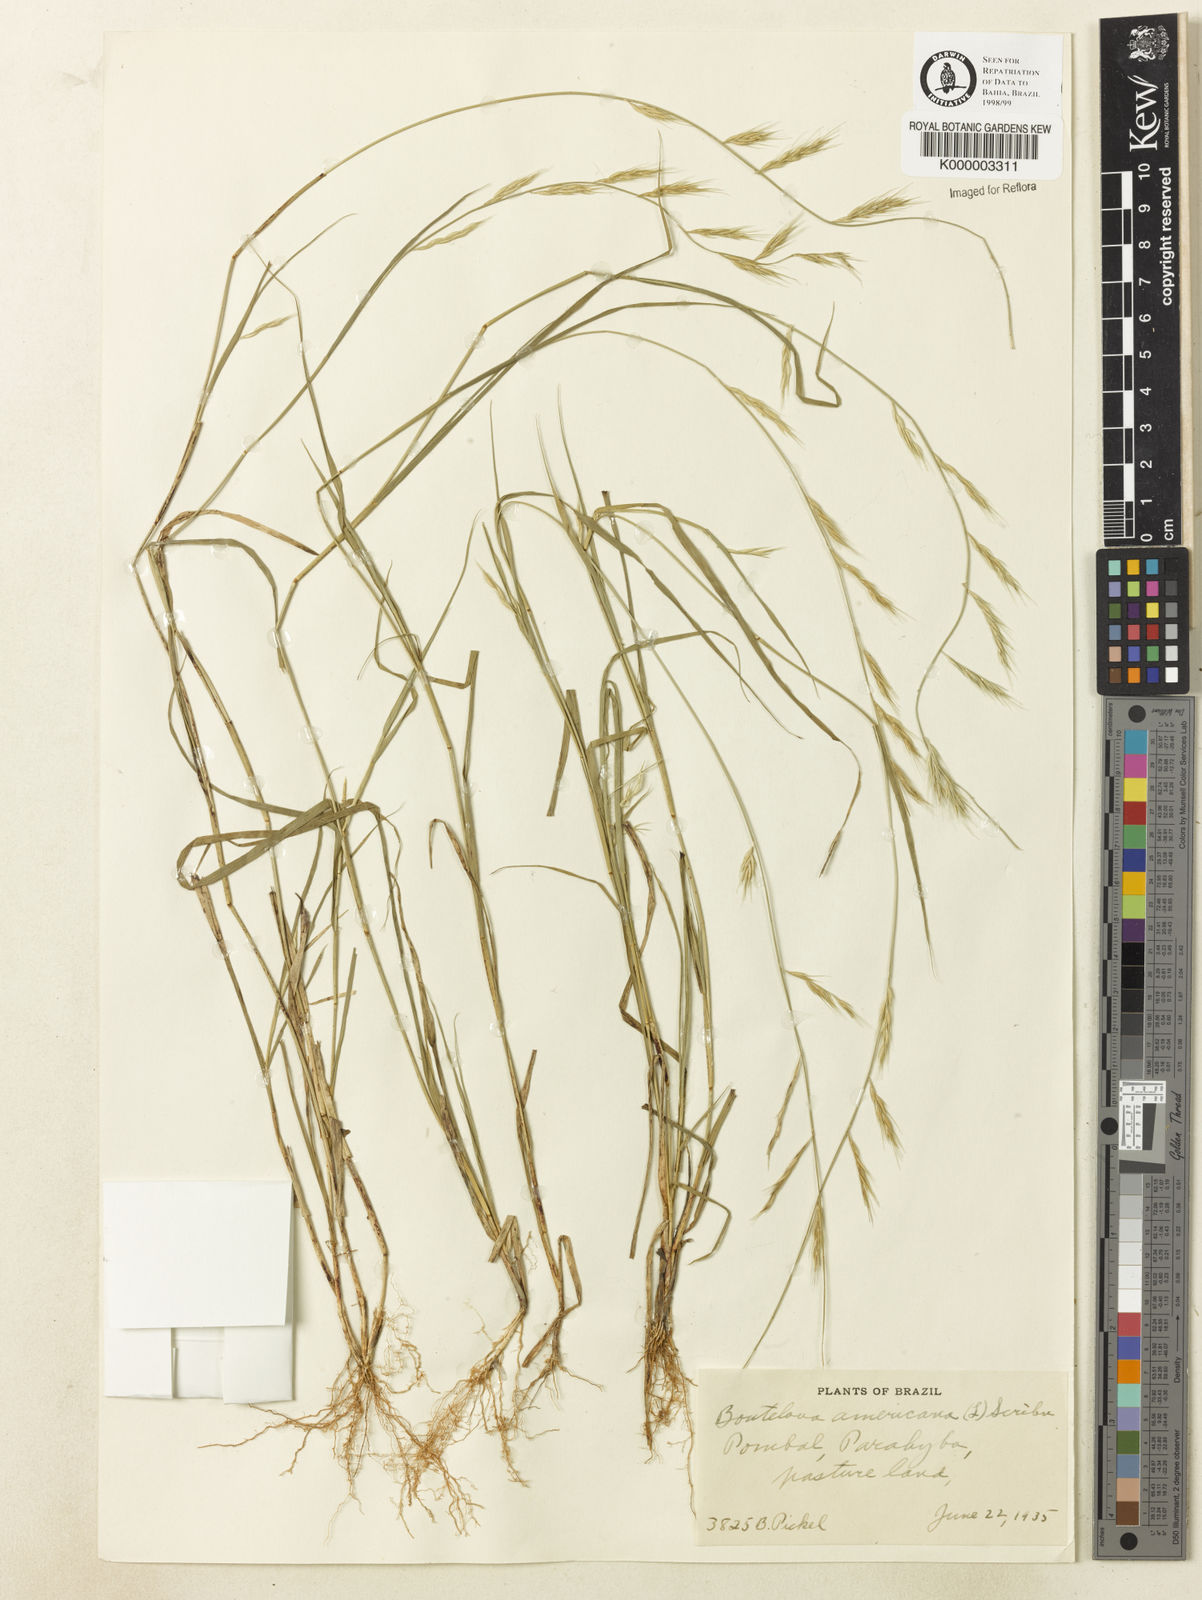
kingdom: Plantae
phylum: Tracheophyta
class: Liliopsida
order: Poales
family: Poaceae
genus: Bouteloua
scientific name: Bouteloua americana
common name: Mule grass
